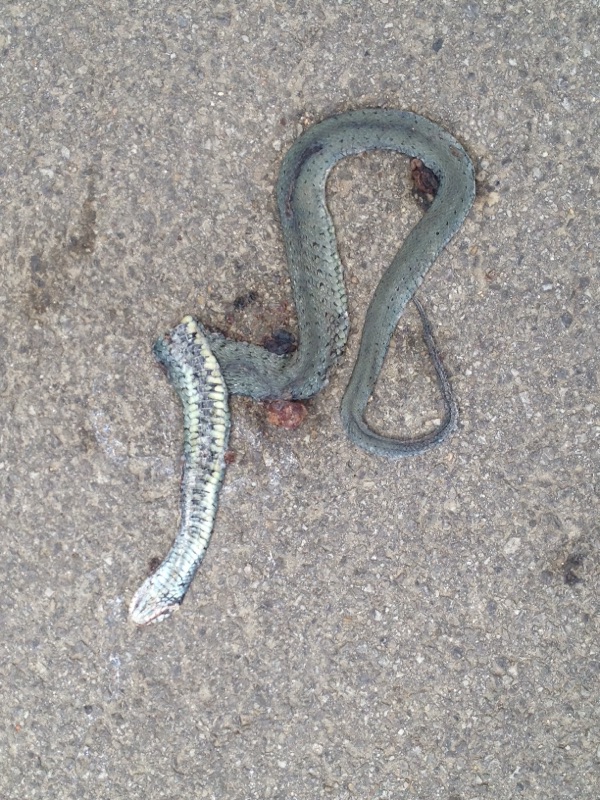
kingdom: Animalia
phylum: Chordata
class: Squamata
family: Colubridae
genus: Natrix
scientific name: Natrix natrix
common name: Grass snake
